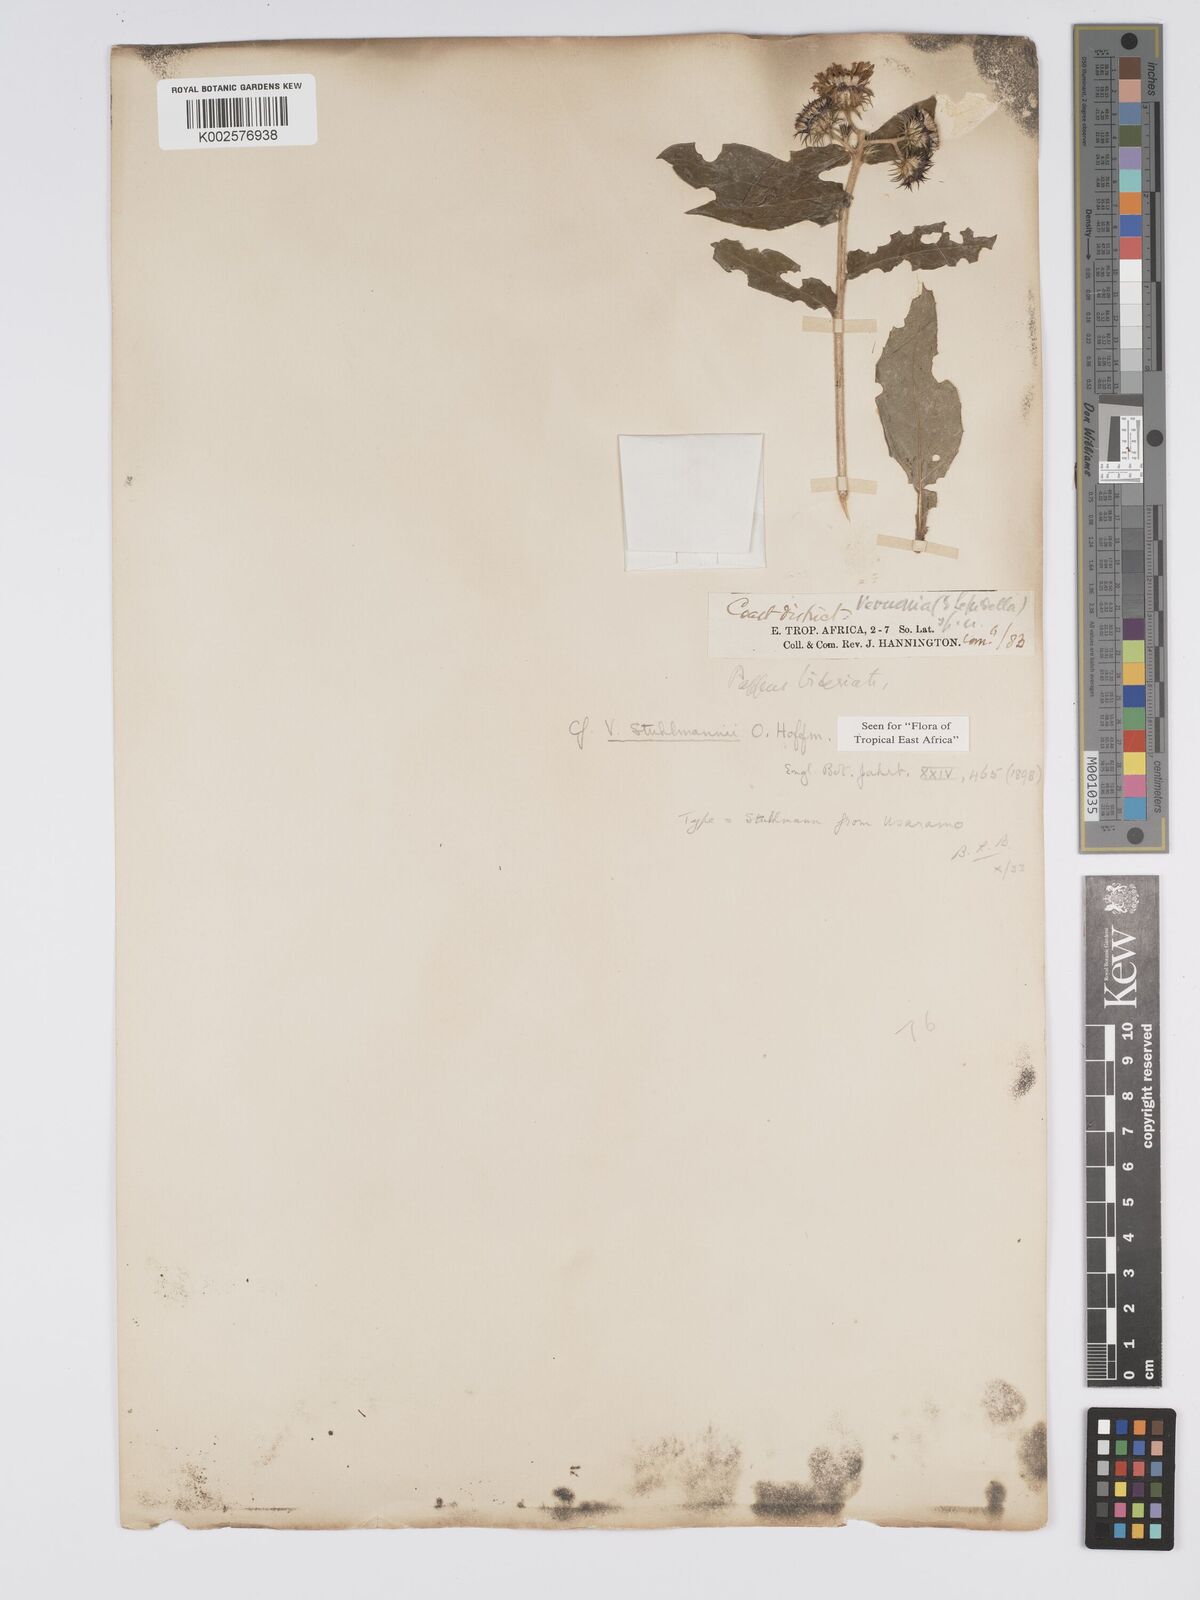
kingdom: Plantae
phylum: Tracheophyta
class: Magnoliopsida
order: Asterales
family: Asteraceae
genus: Vernonia
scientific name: Vernonia stuhlmannii
